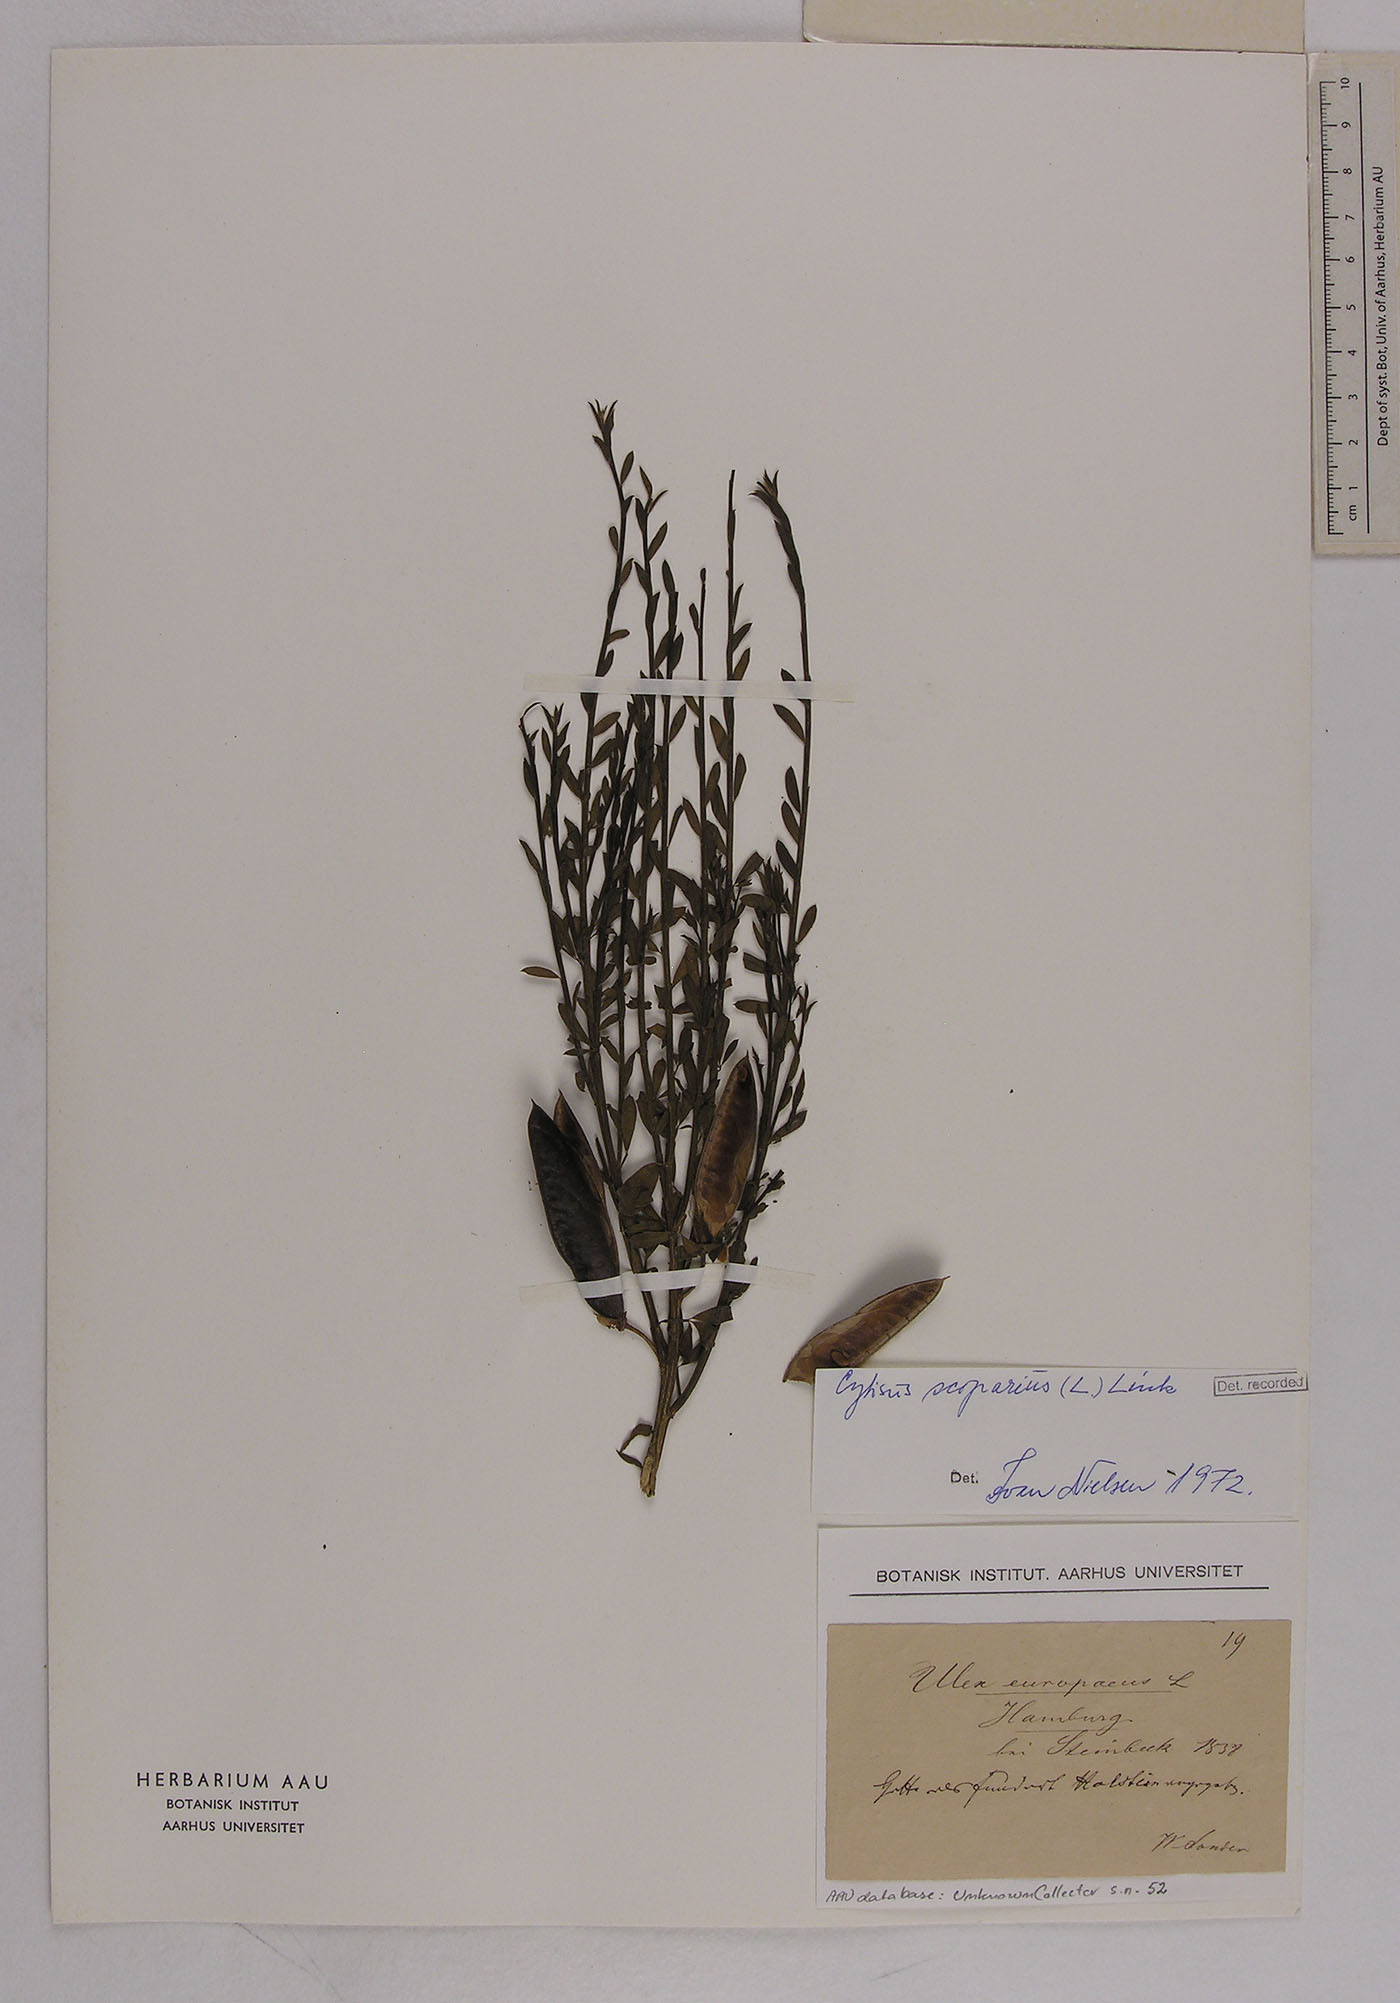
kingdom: Plantae
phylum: Tracheophyta
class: Magnoliopsida
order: Fabales
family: Fabaceae
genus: Cytisus
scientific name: Cytisus scoparius
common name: Scotch broom
